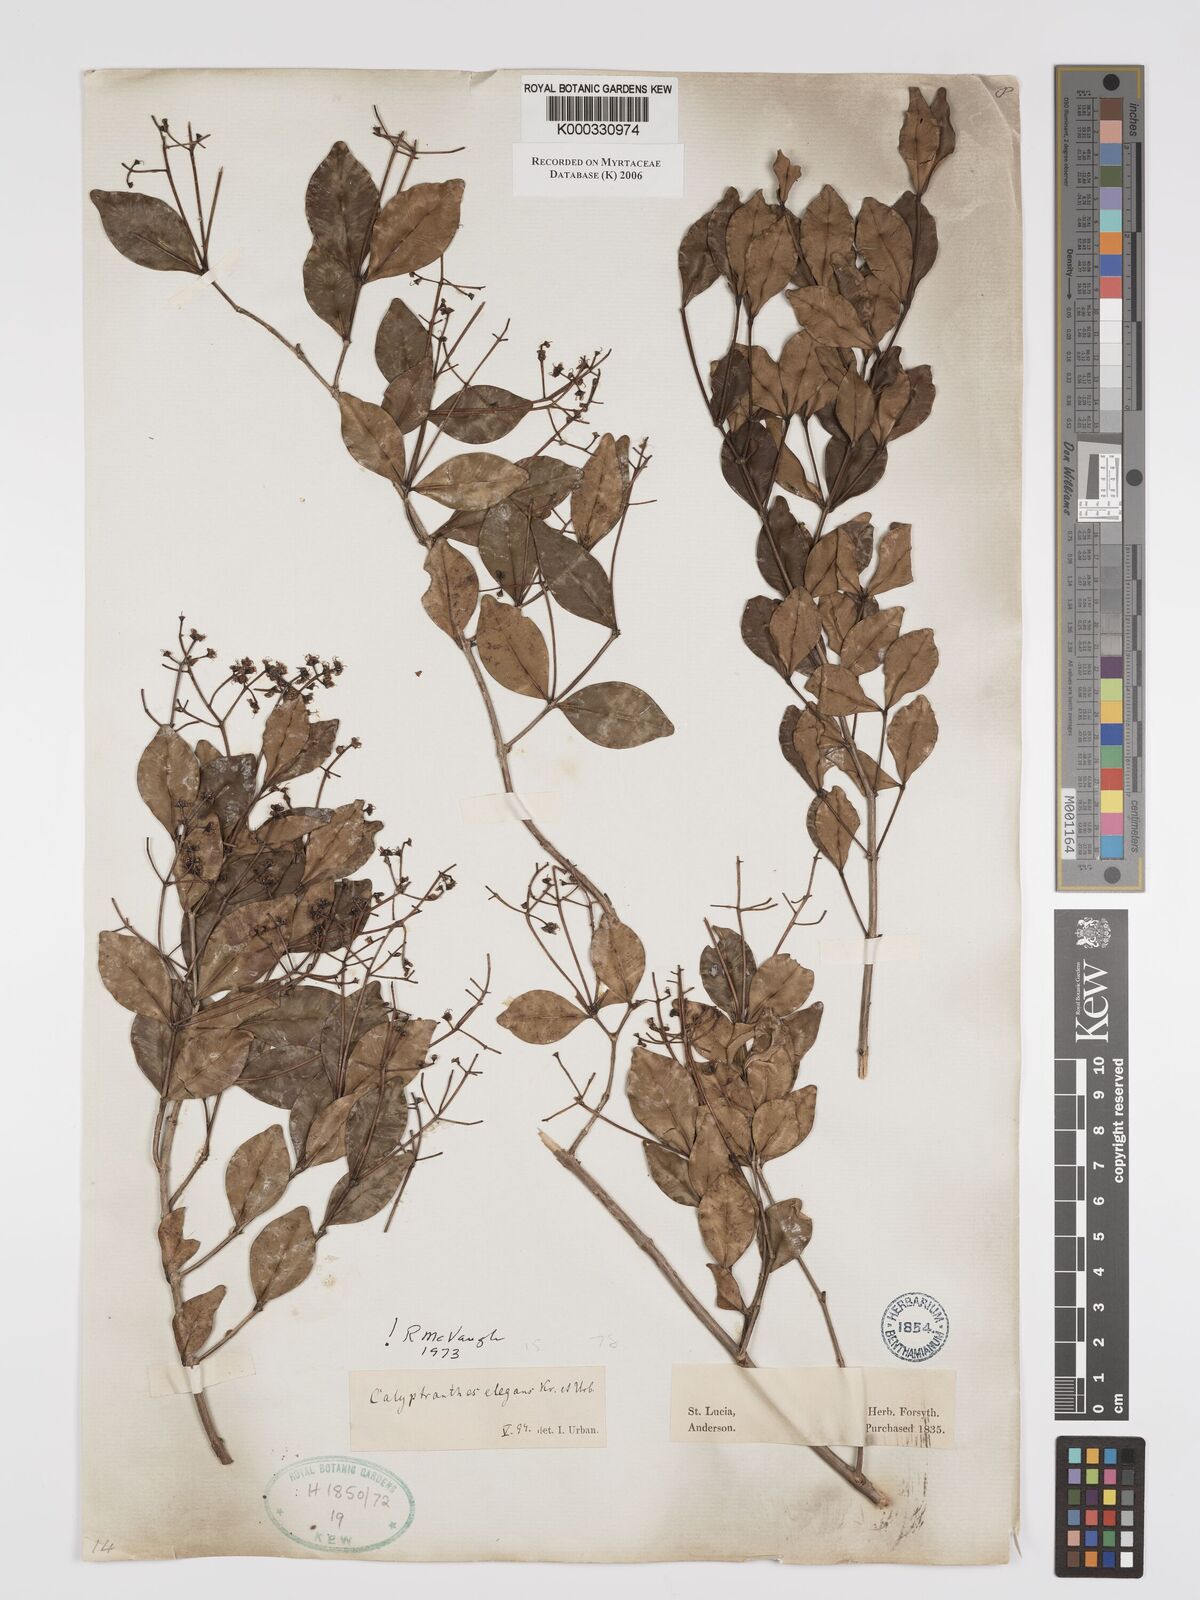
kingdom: Plantae
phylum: Tracheophyta
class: Magnoliopsida
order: Myrtales
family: Myrtaceae
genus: Myrcia
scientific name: Myrcia neoelegans
